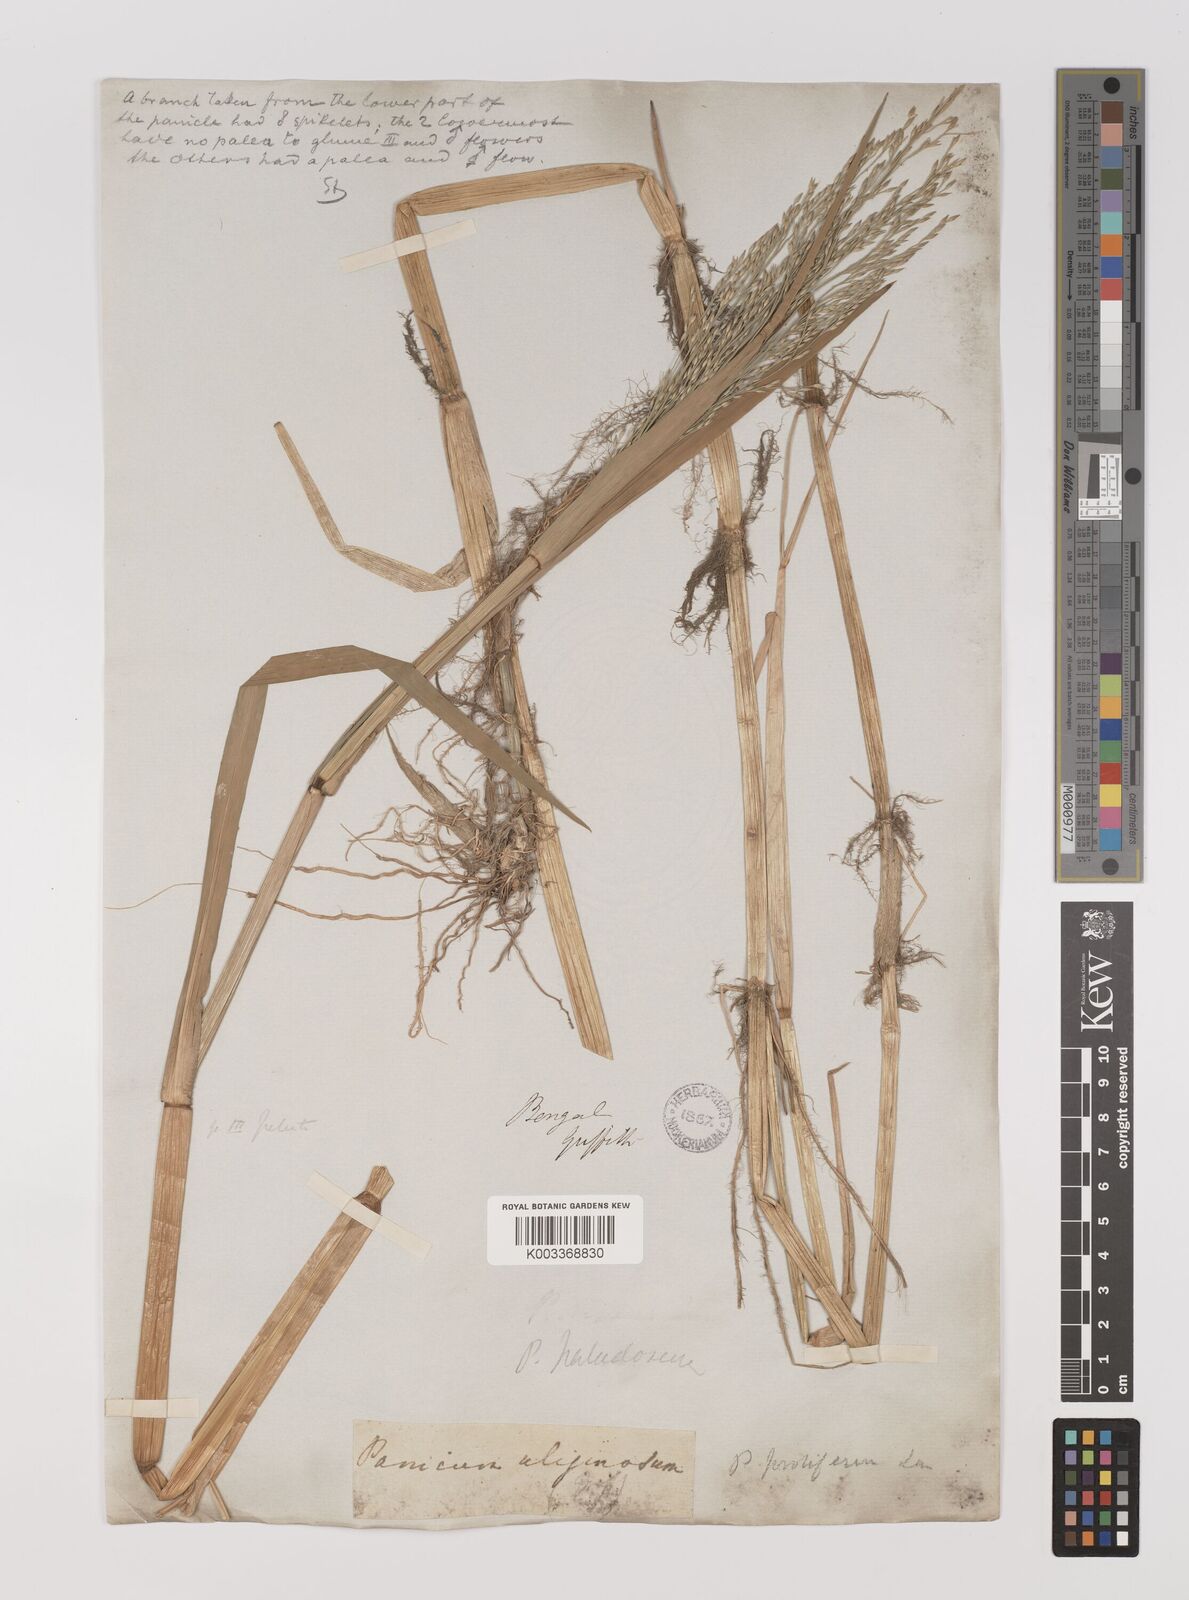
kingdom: Plantae
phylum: Tracheophyta
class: Liliopsida
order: Poales
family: Poaceae
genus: Louisiella
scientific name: Louisiella paludosa
